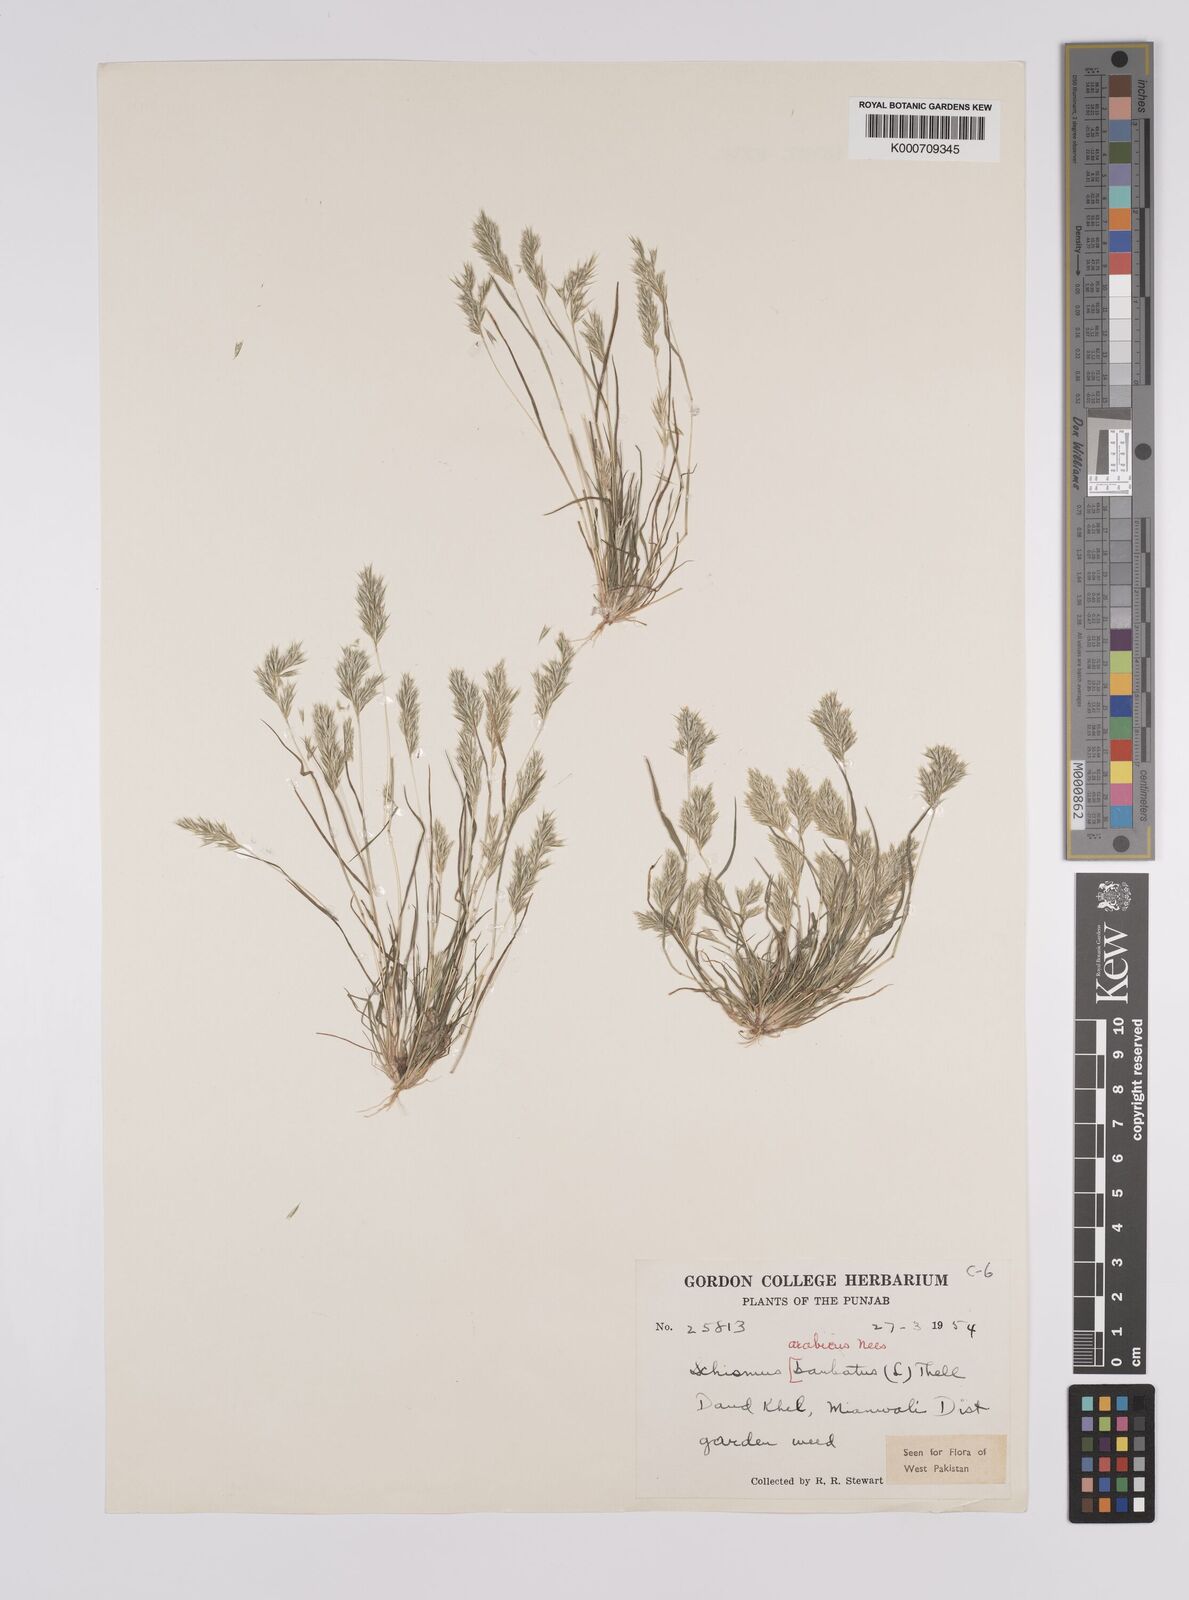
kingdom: Plantae
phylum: Tracheophyta
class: Liliopsida
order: Poales
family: Poaceae
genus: Schismus
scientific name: Schismus arabicus
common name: Arabian schismus
